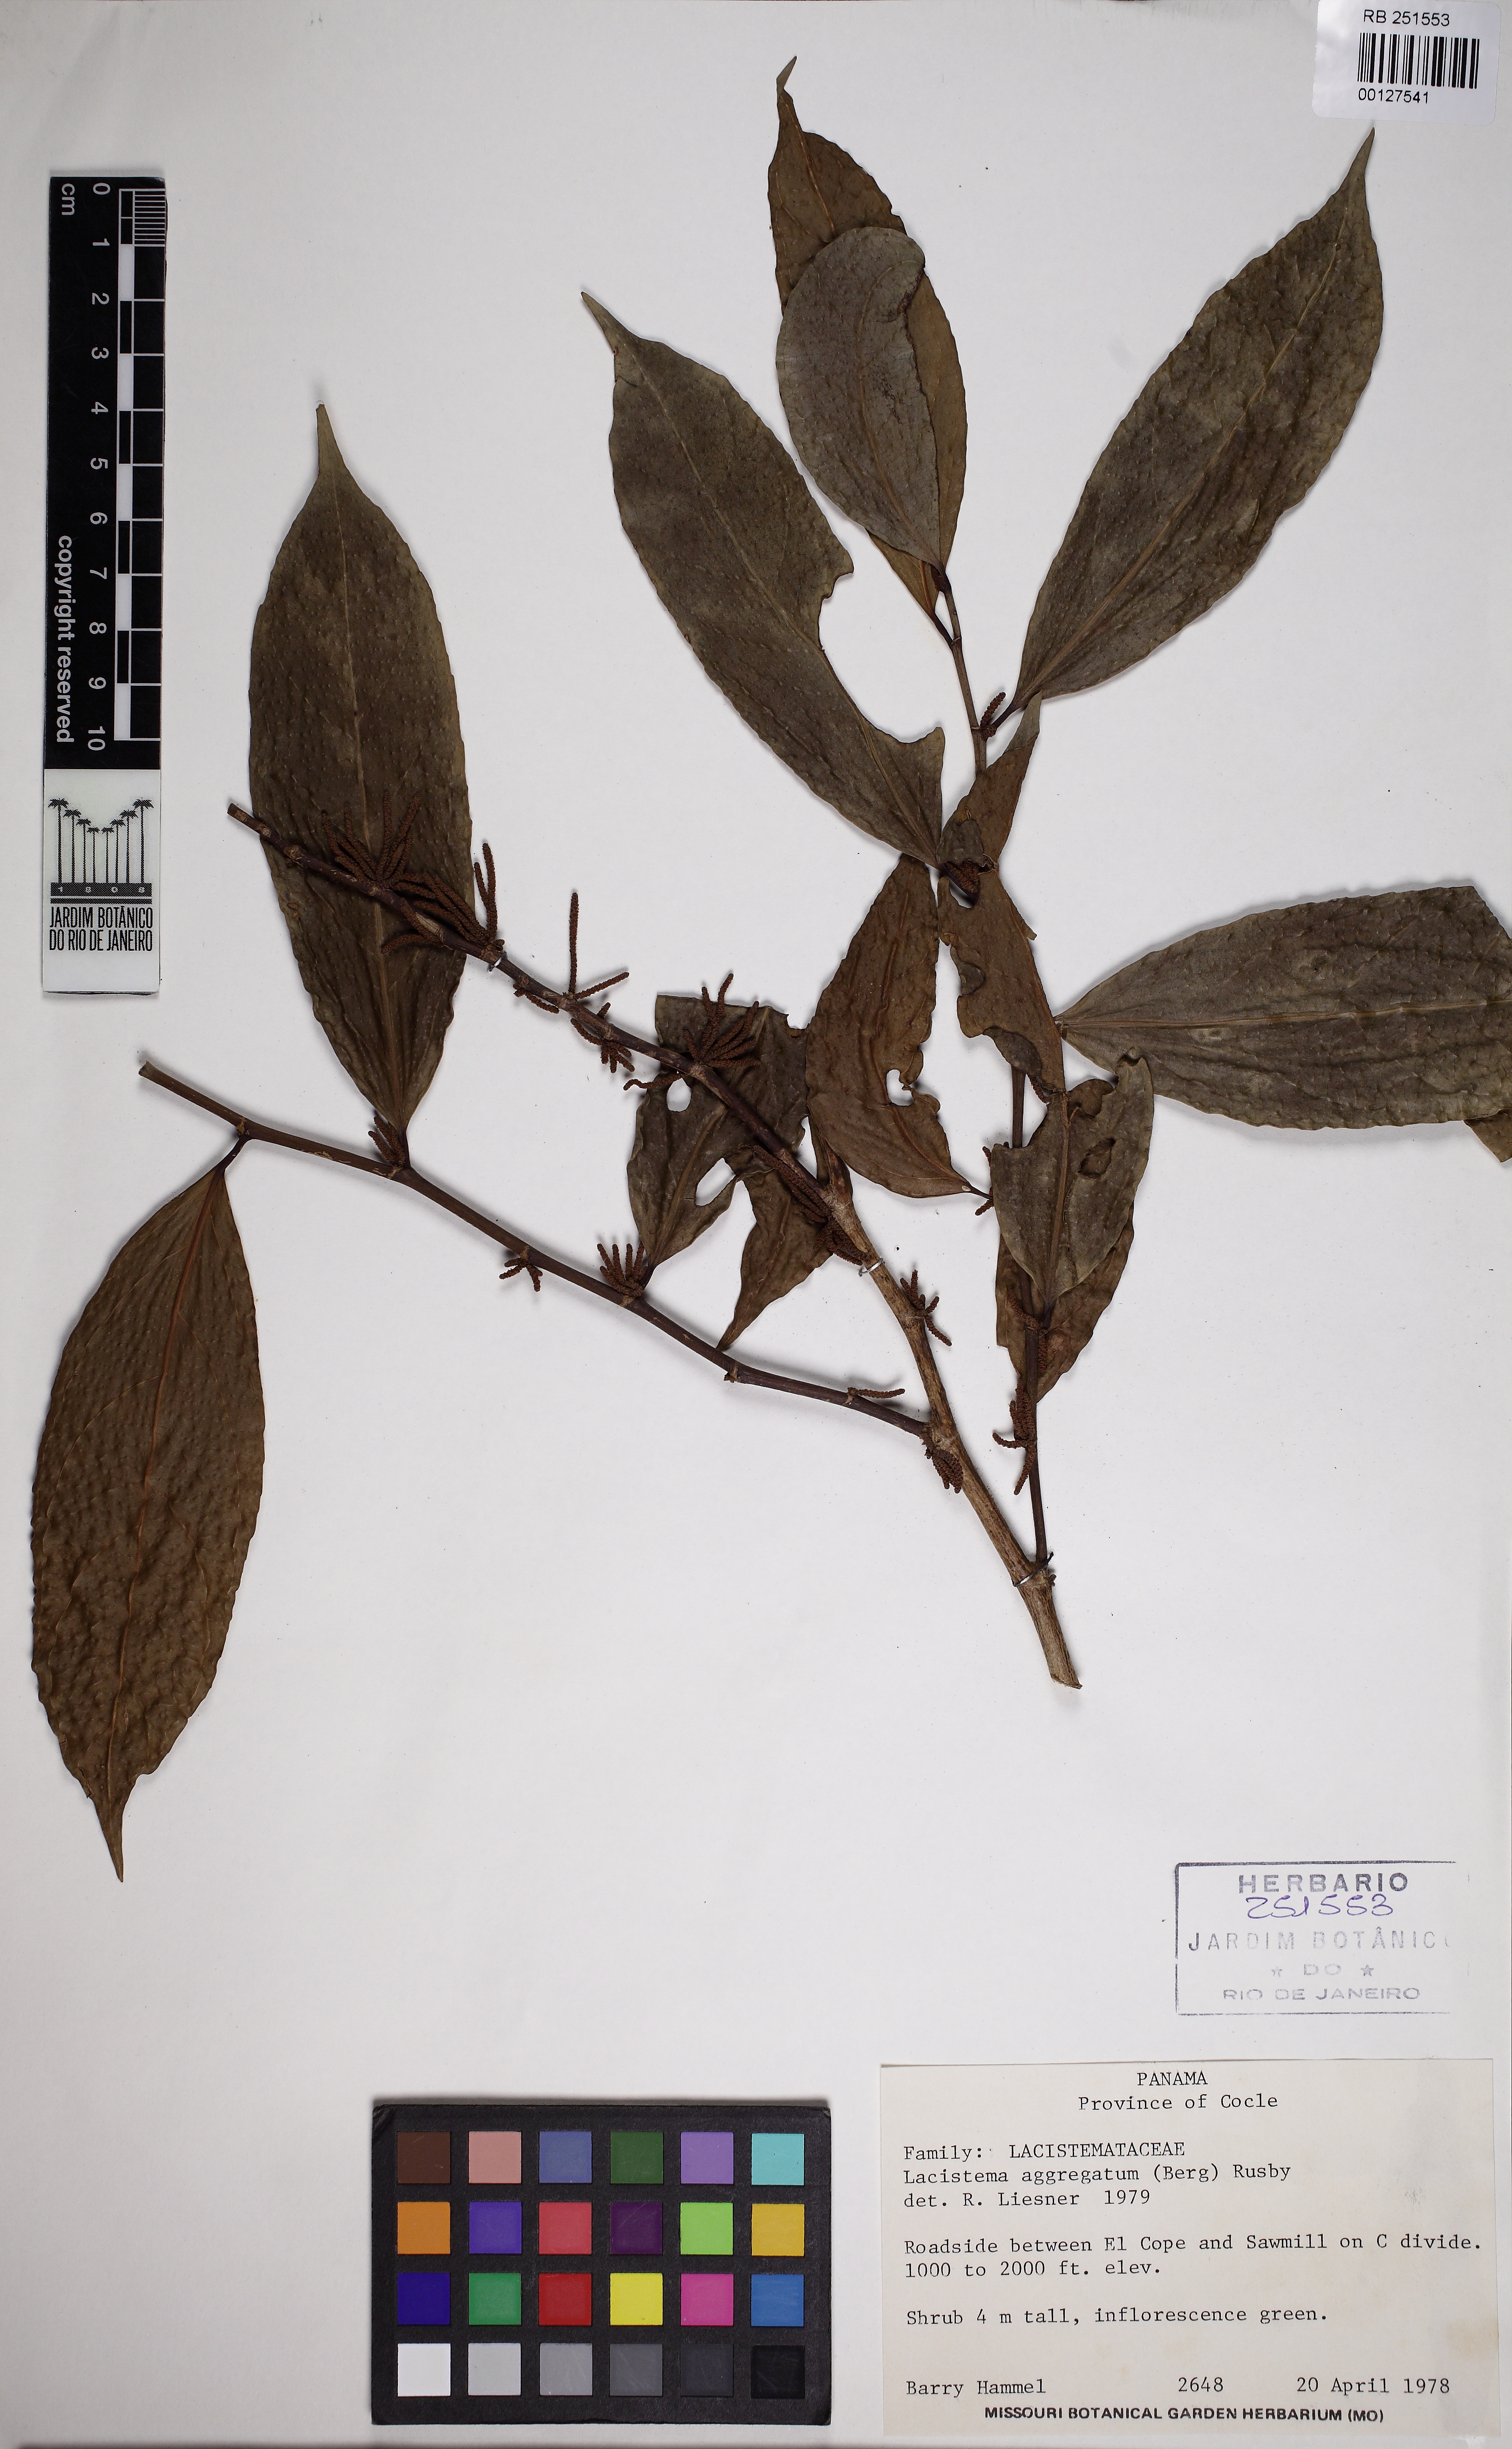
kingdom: Plantae
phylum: Tracheophyta
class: Magnoliopsida
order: Malpighiales
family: Lacistemataceae
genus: Lacistema
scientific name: Lacistema aggregatum
